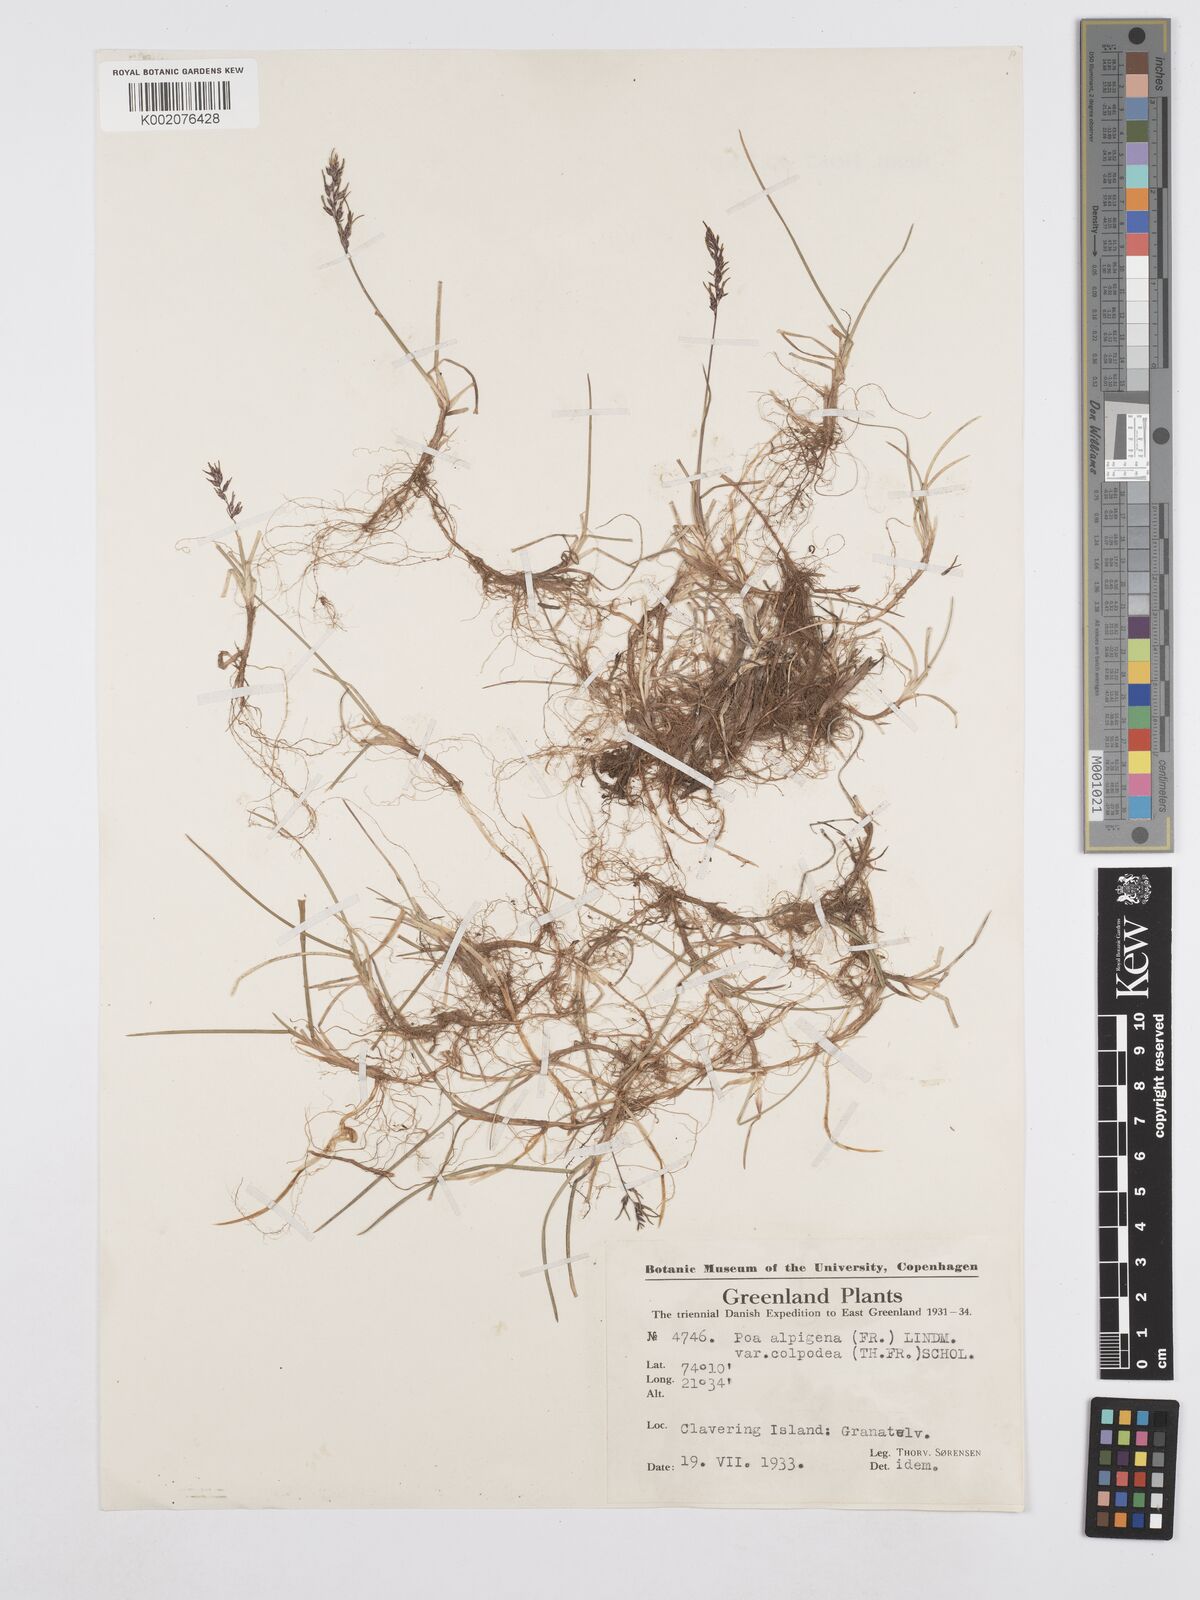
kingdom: Plantae
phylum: Tracheophyta
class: Liliopsida
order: Poales
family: Poaceae
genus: Poa
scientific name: Poa lindebergii
